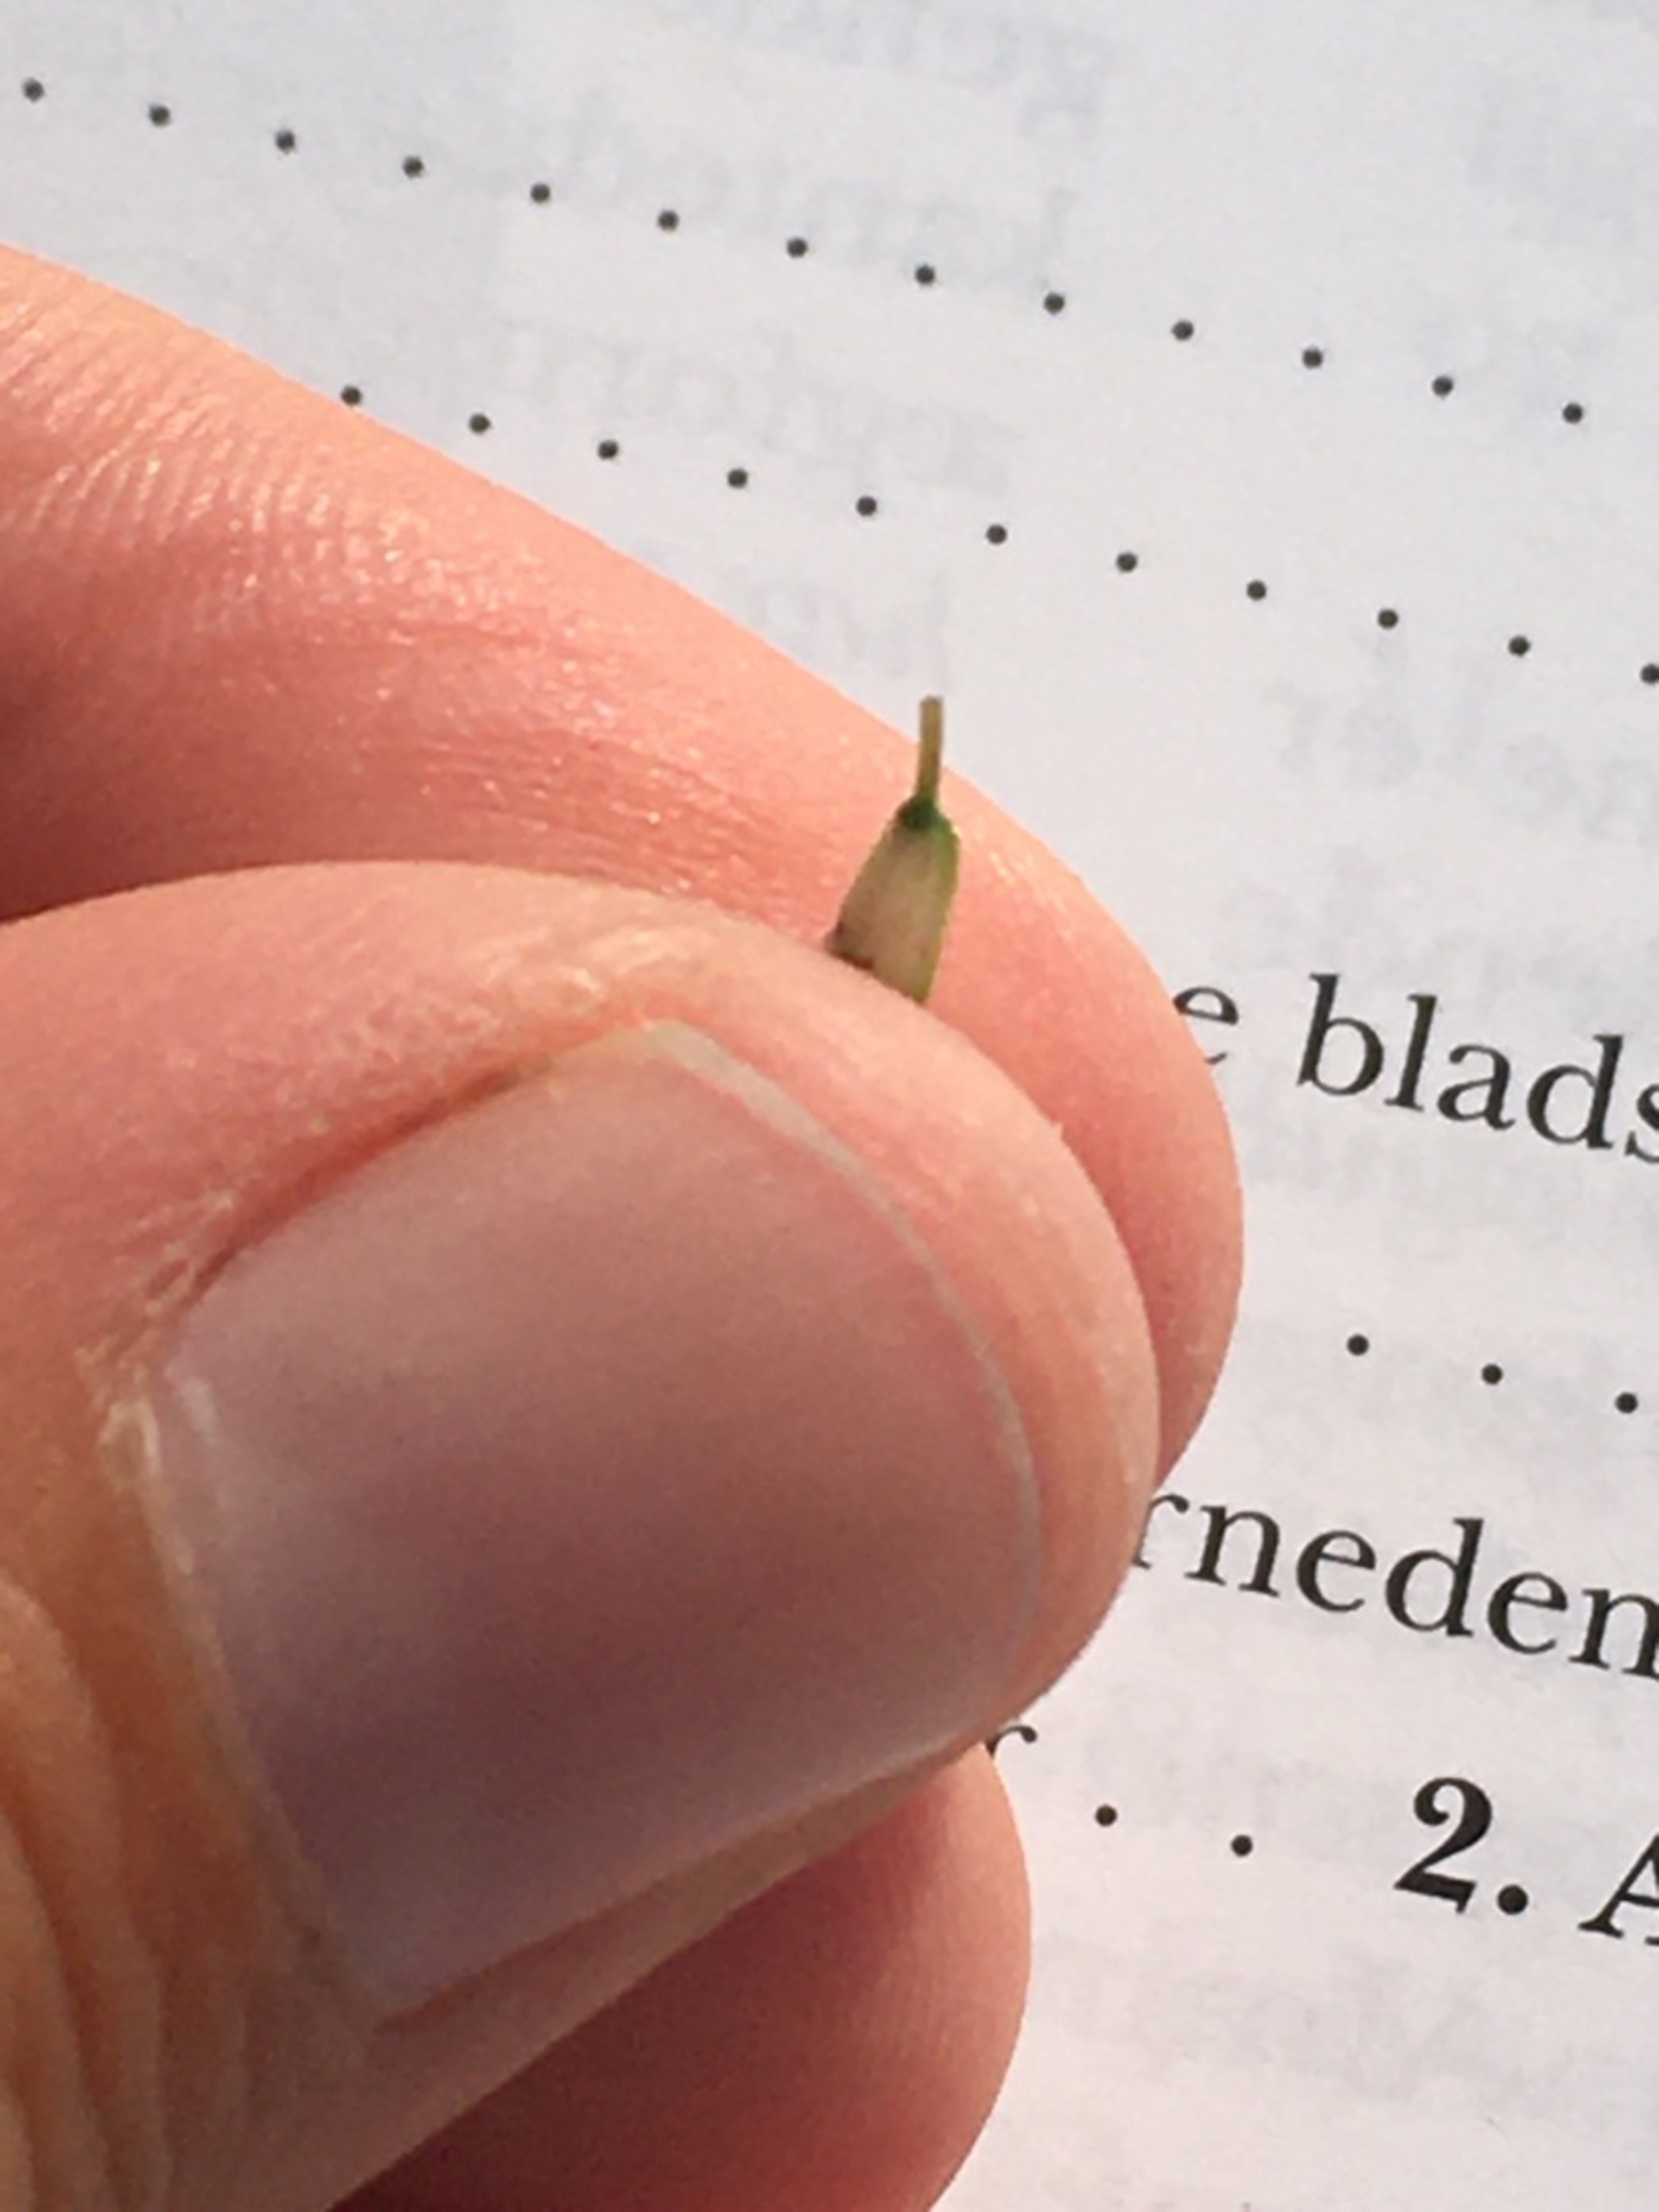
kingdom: Plantae
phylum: Tracheophyta
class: Magnoliopsida
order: Fabales
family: Fabaceae
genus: Trifolium
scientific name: Trifolium repens
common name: Hvid-kløver
